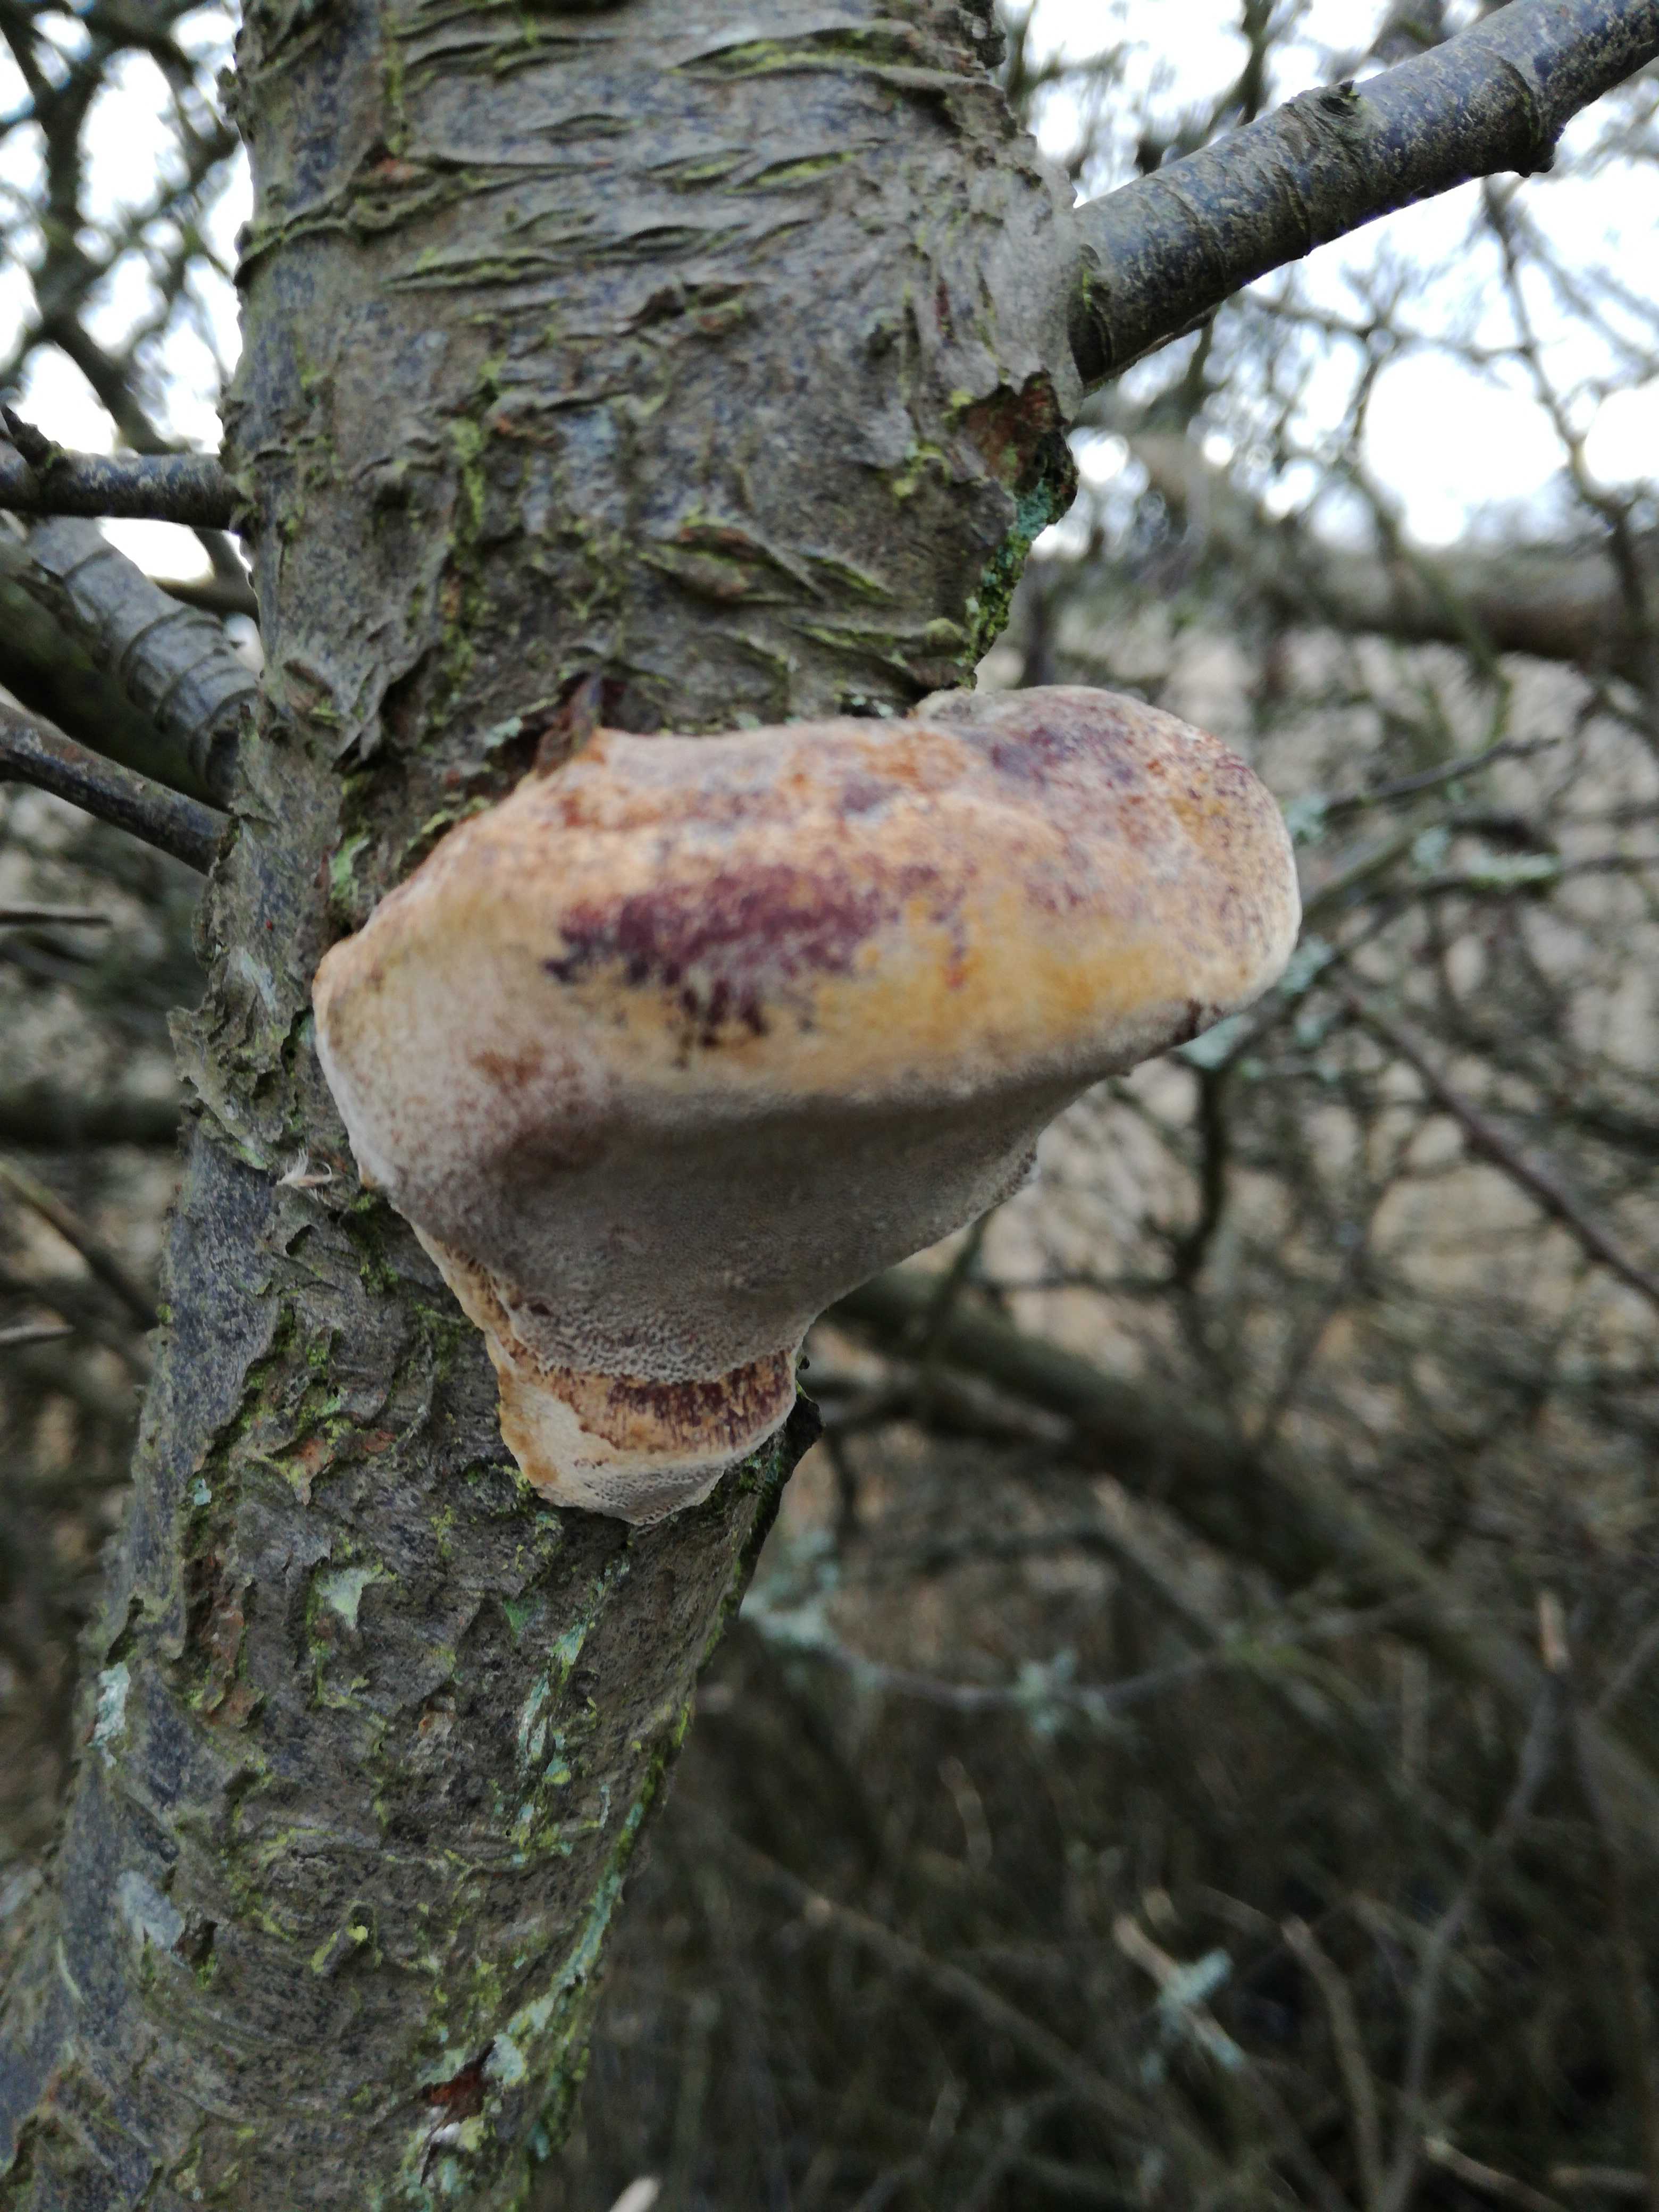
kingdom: Fungi
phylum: Basidiomycota
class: Agaricomycetes
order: Hymenochaetales
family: Hymenochaetaceae
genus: Phellinus
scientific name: Phellinus pomaceus
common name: blomme-ildporesvamp
